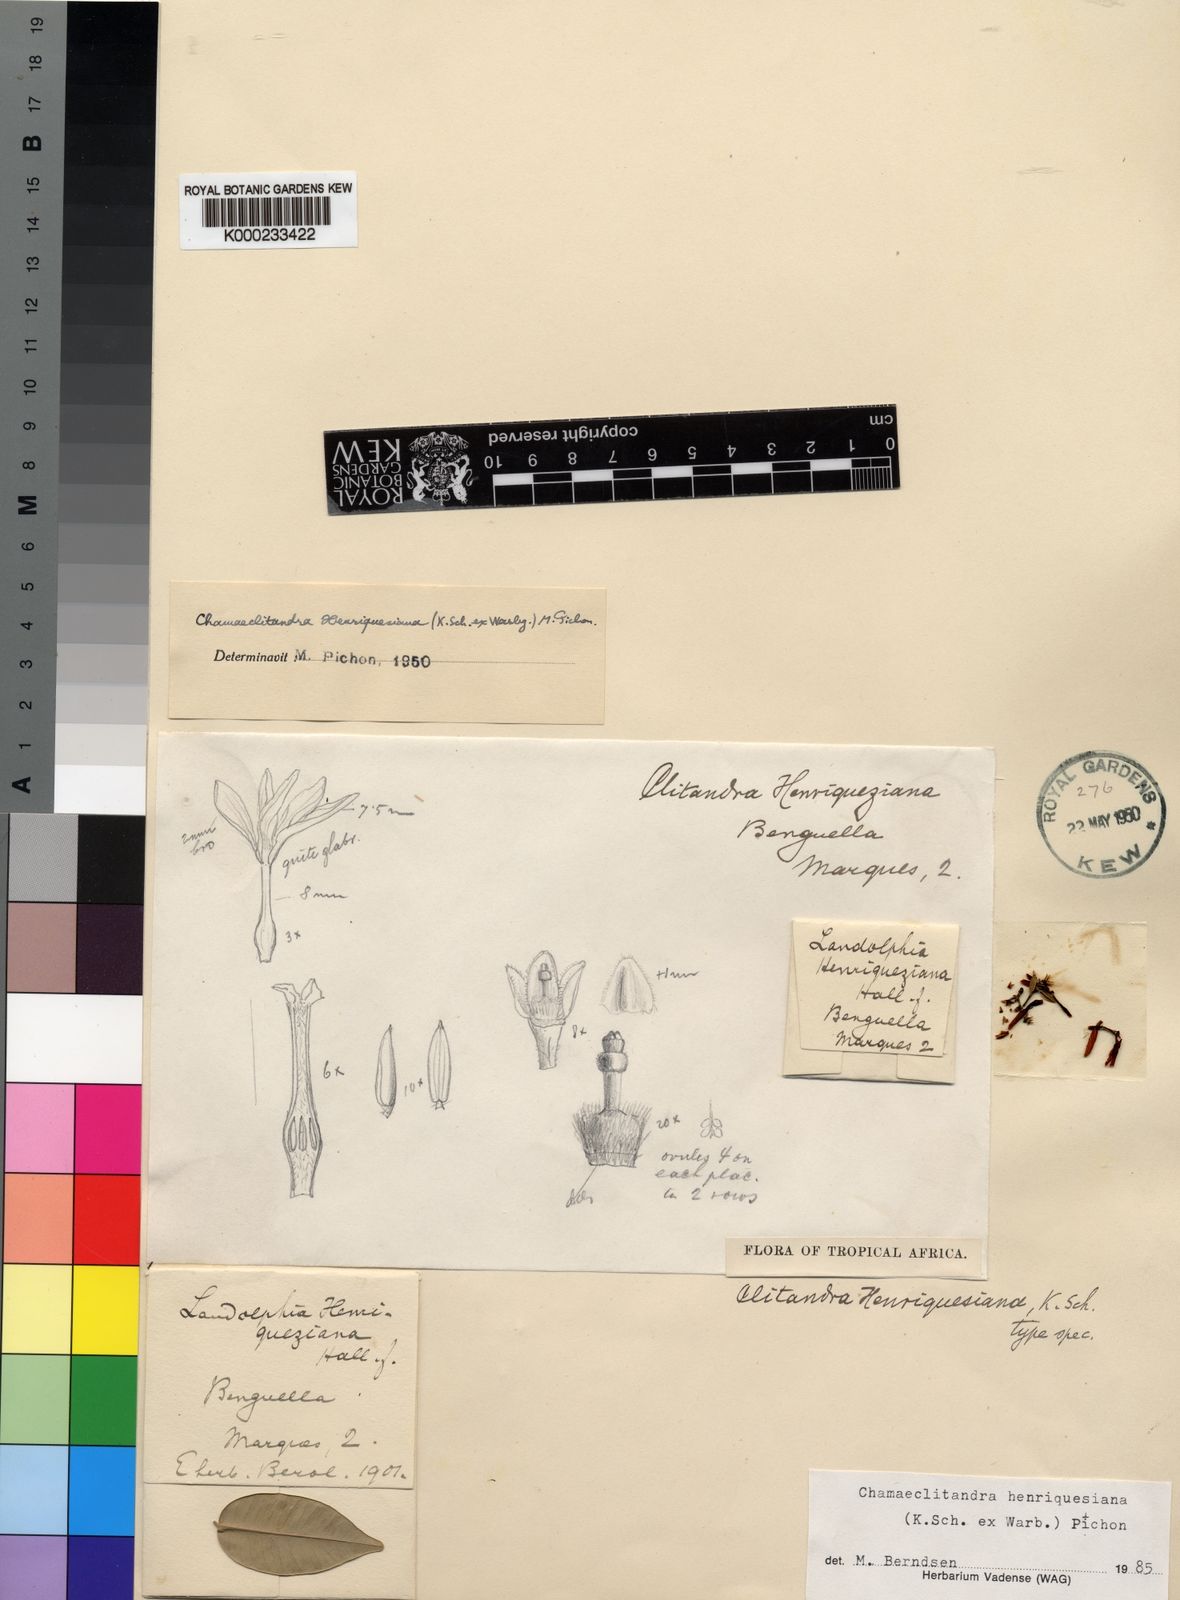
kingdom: Plantae
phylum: Tracheophyta
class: Magnoliopsida
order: Gentianales
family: Apocynaceae
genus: Chamaeclitandra
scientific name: Chamaeclitandra henriquesiana
